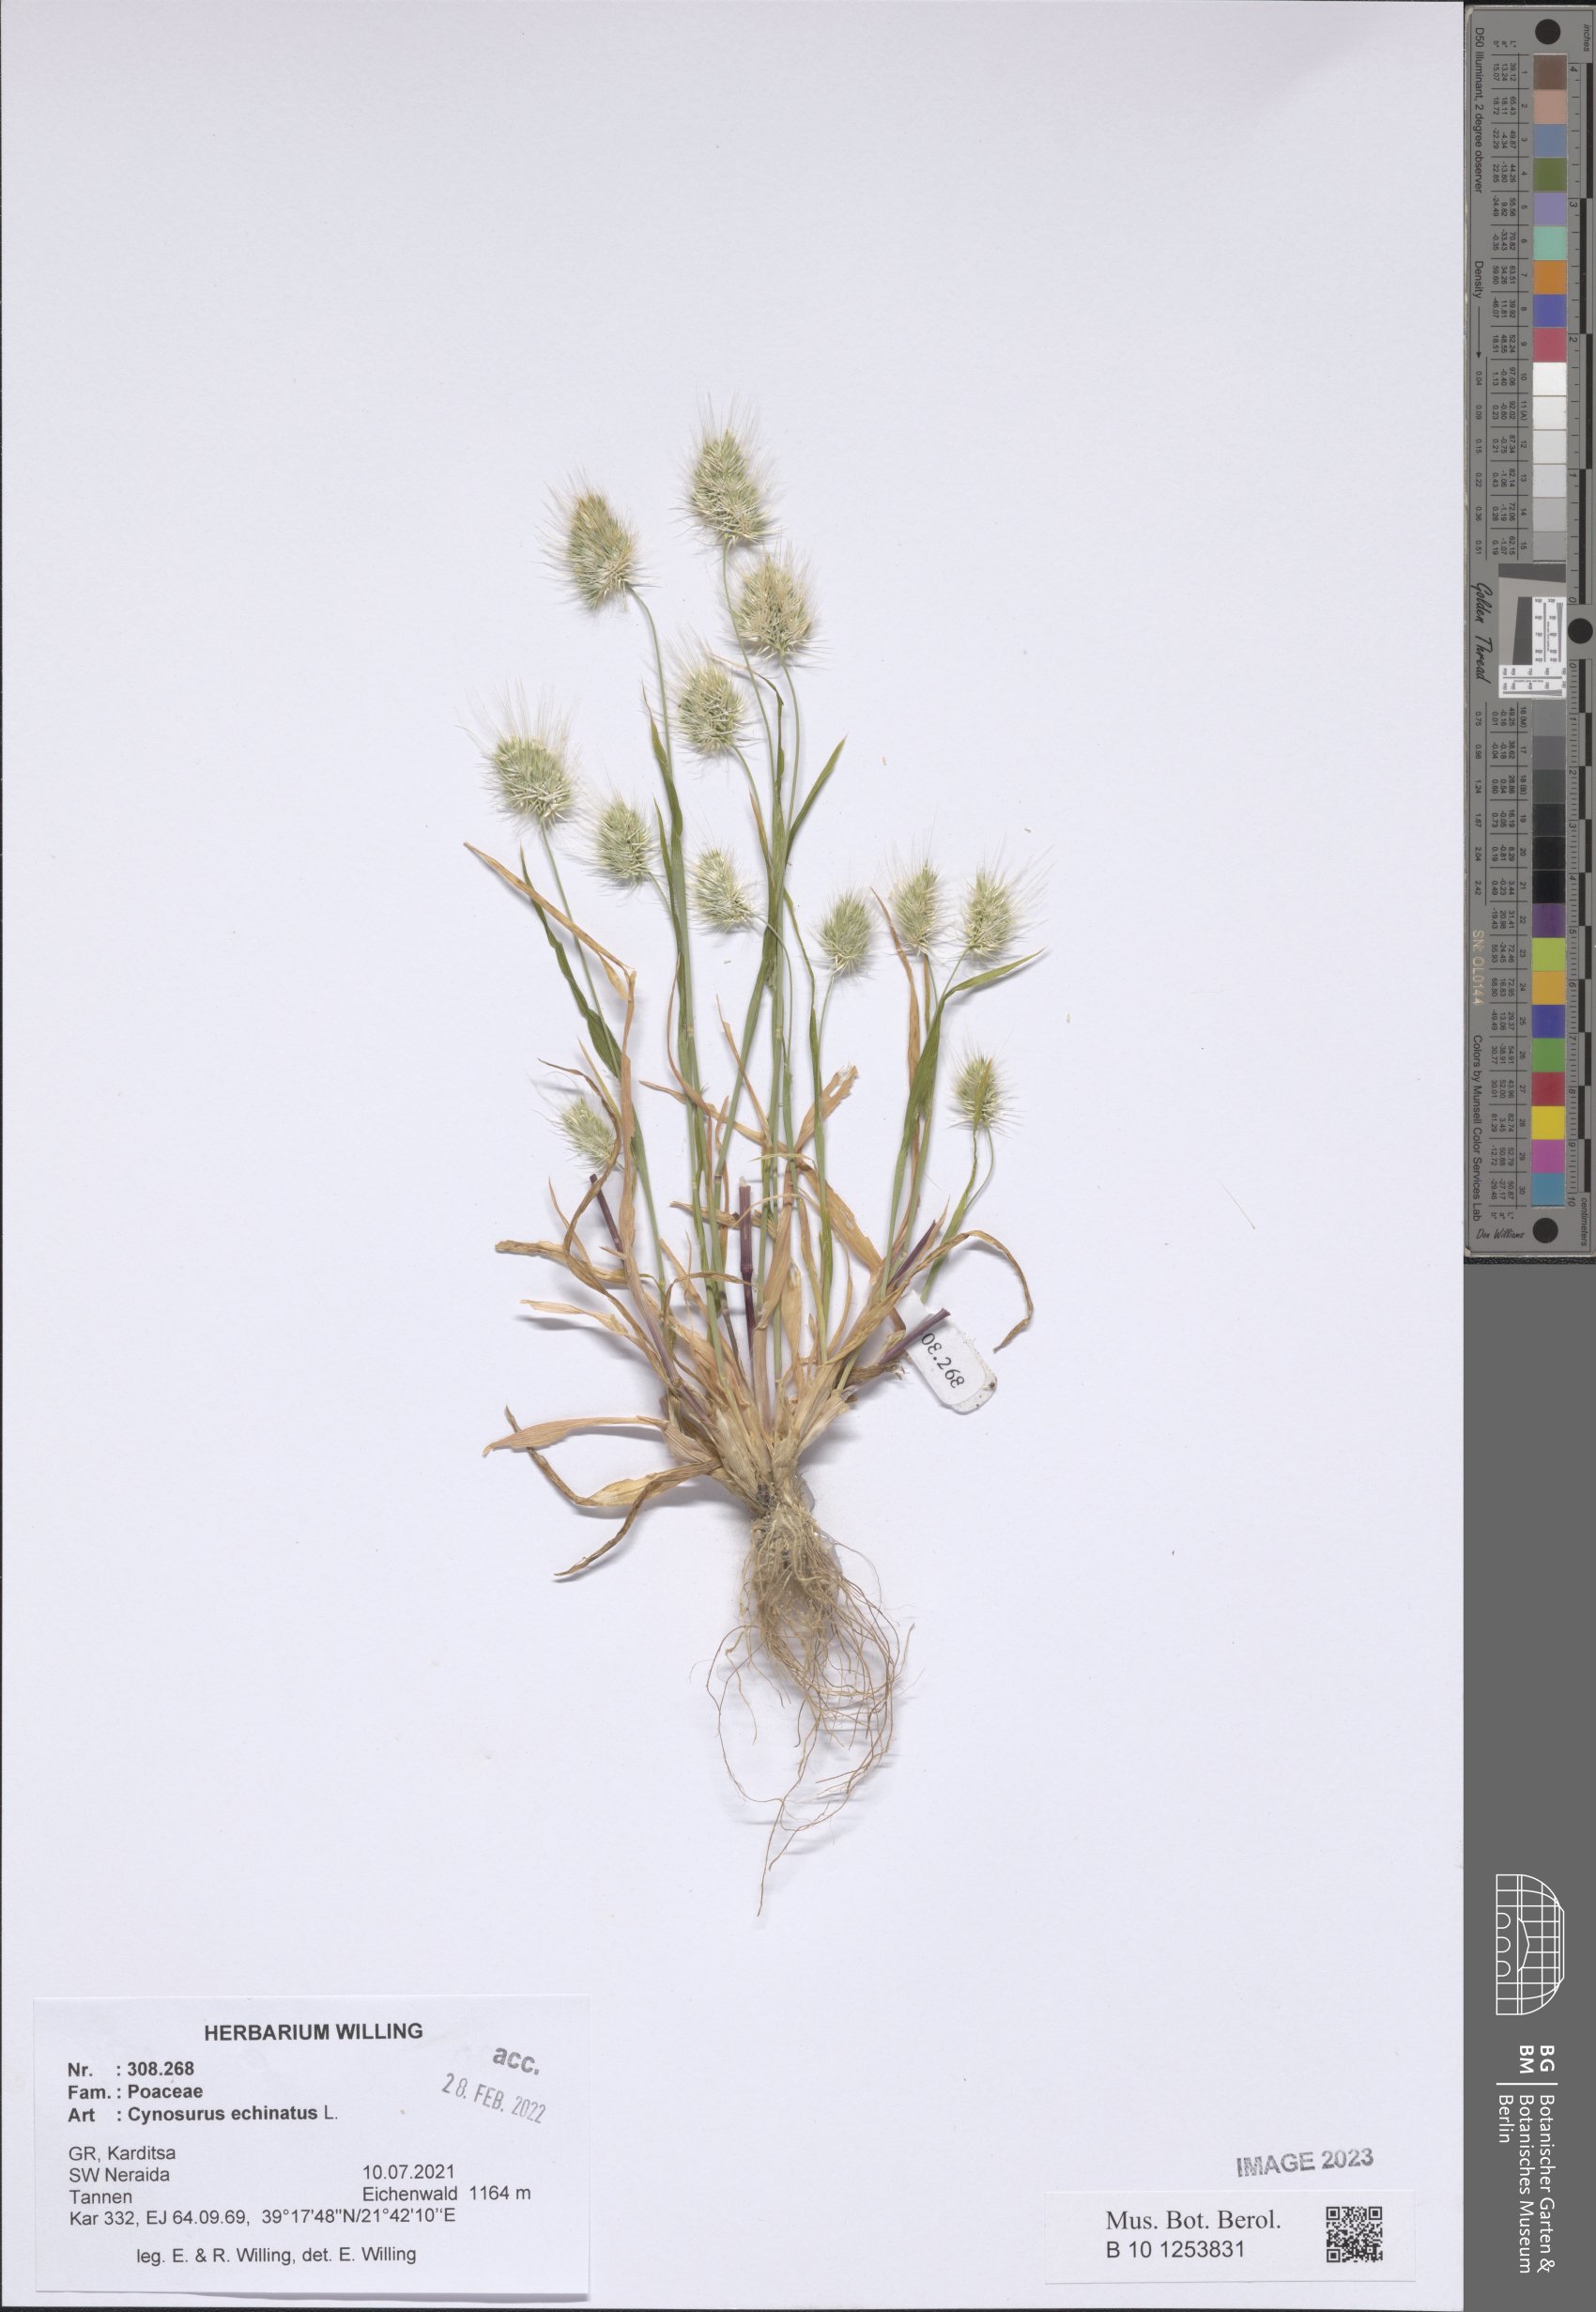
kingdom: Plantae
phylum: Tracheophyta
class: Liliopsida
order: Poales
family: Poaceae
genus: Cynosurus
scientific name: Cynosurus echinatus
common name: Rough dog's-tail
